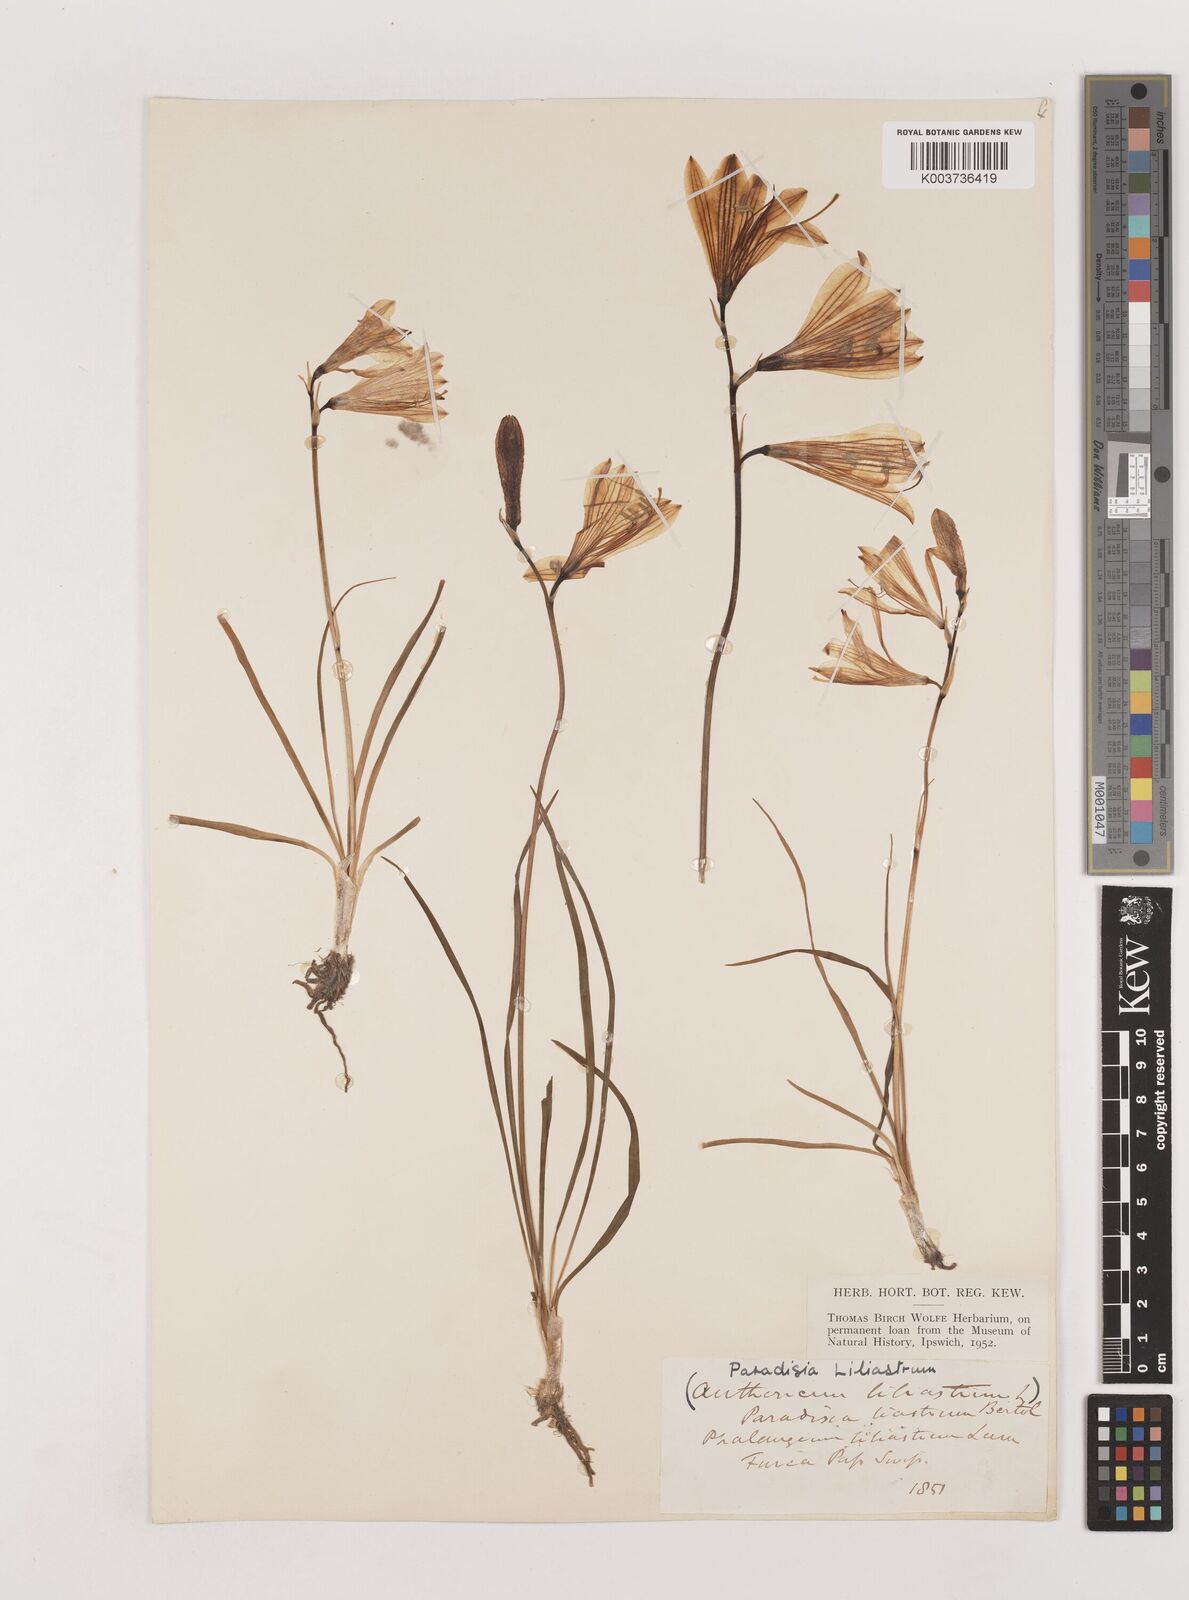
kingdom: Plantae
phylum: Tracheophyta
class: Liliopsida
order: Asparagales
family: Asparagaceae
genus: Paradisea
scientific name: Paradisea liliastrum
